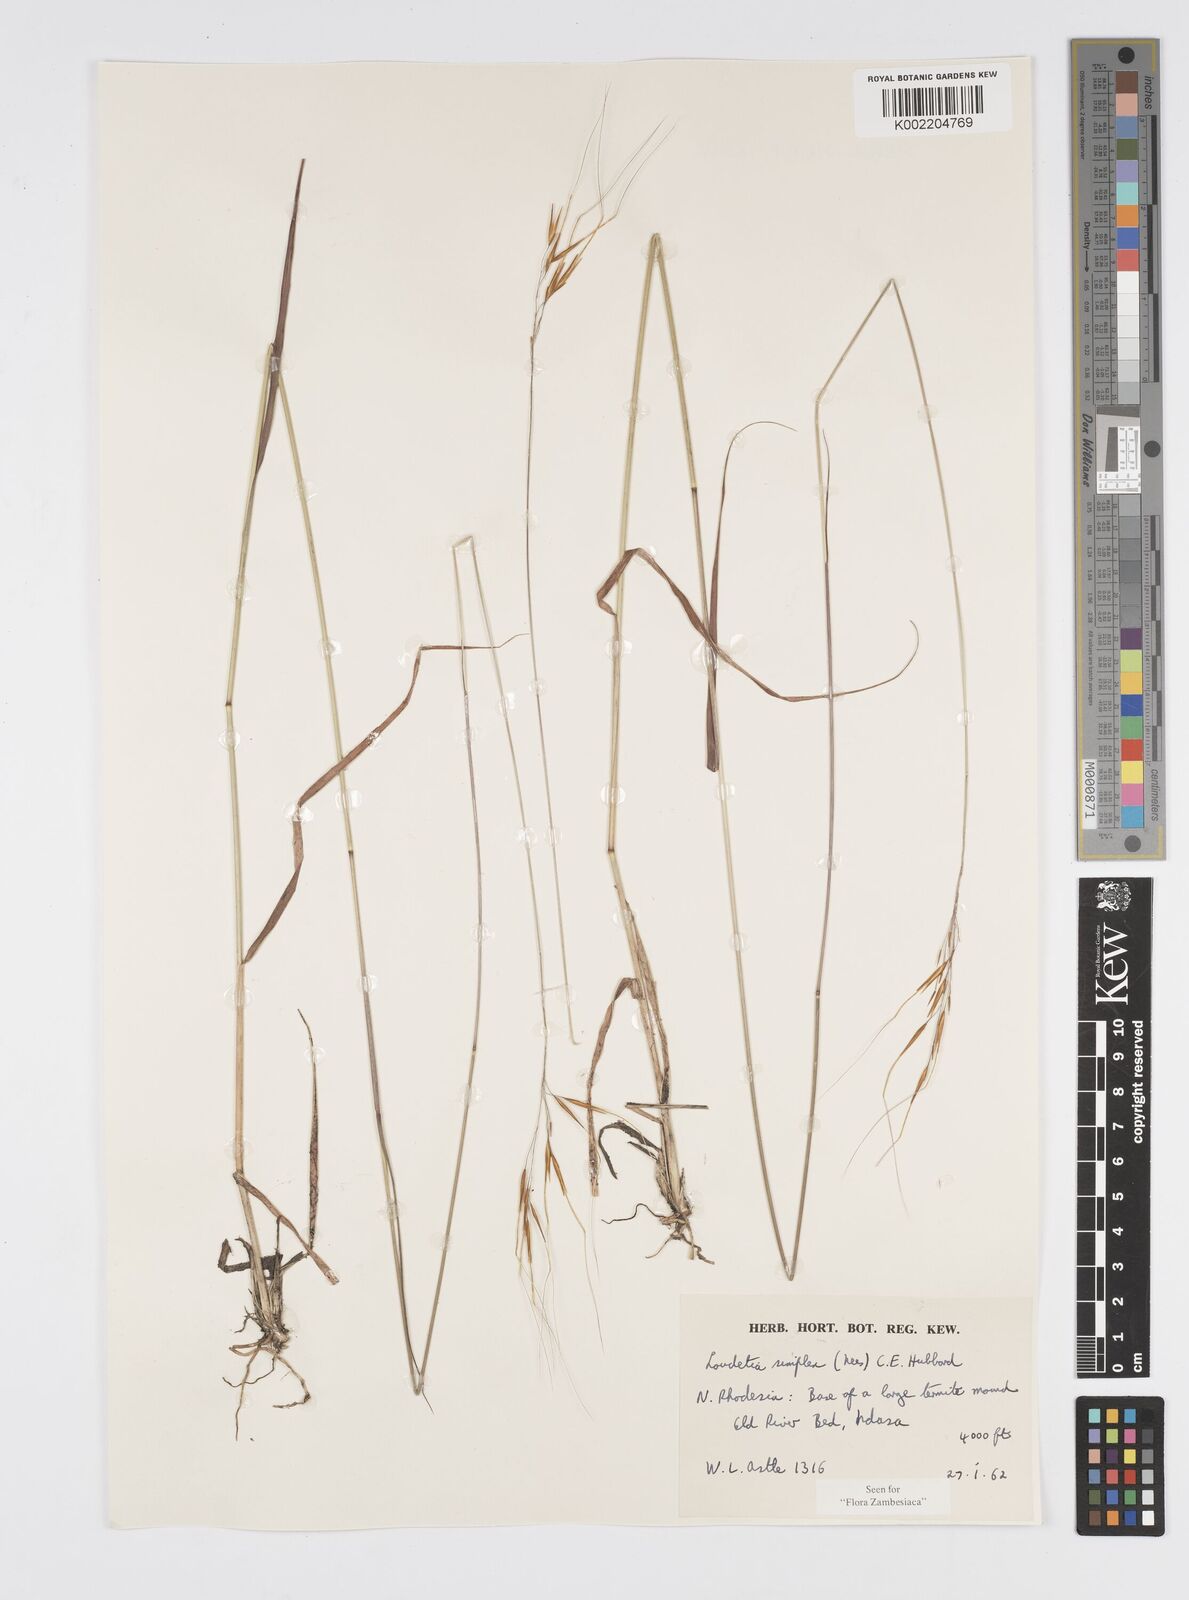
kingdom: Plantae
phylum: Tracheophyta
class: Liliopsida
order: Poales
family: Poaceae
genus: Loudetia
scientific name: Loudetia simplex
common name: Common russet grass
